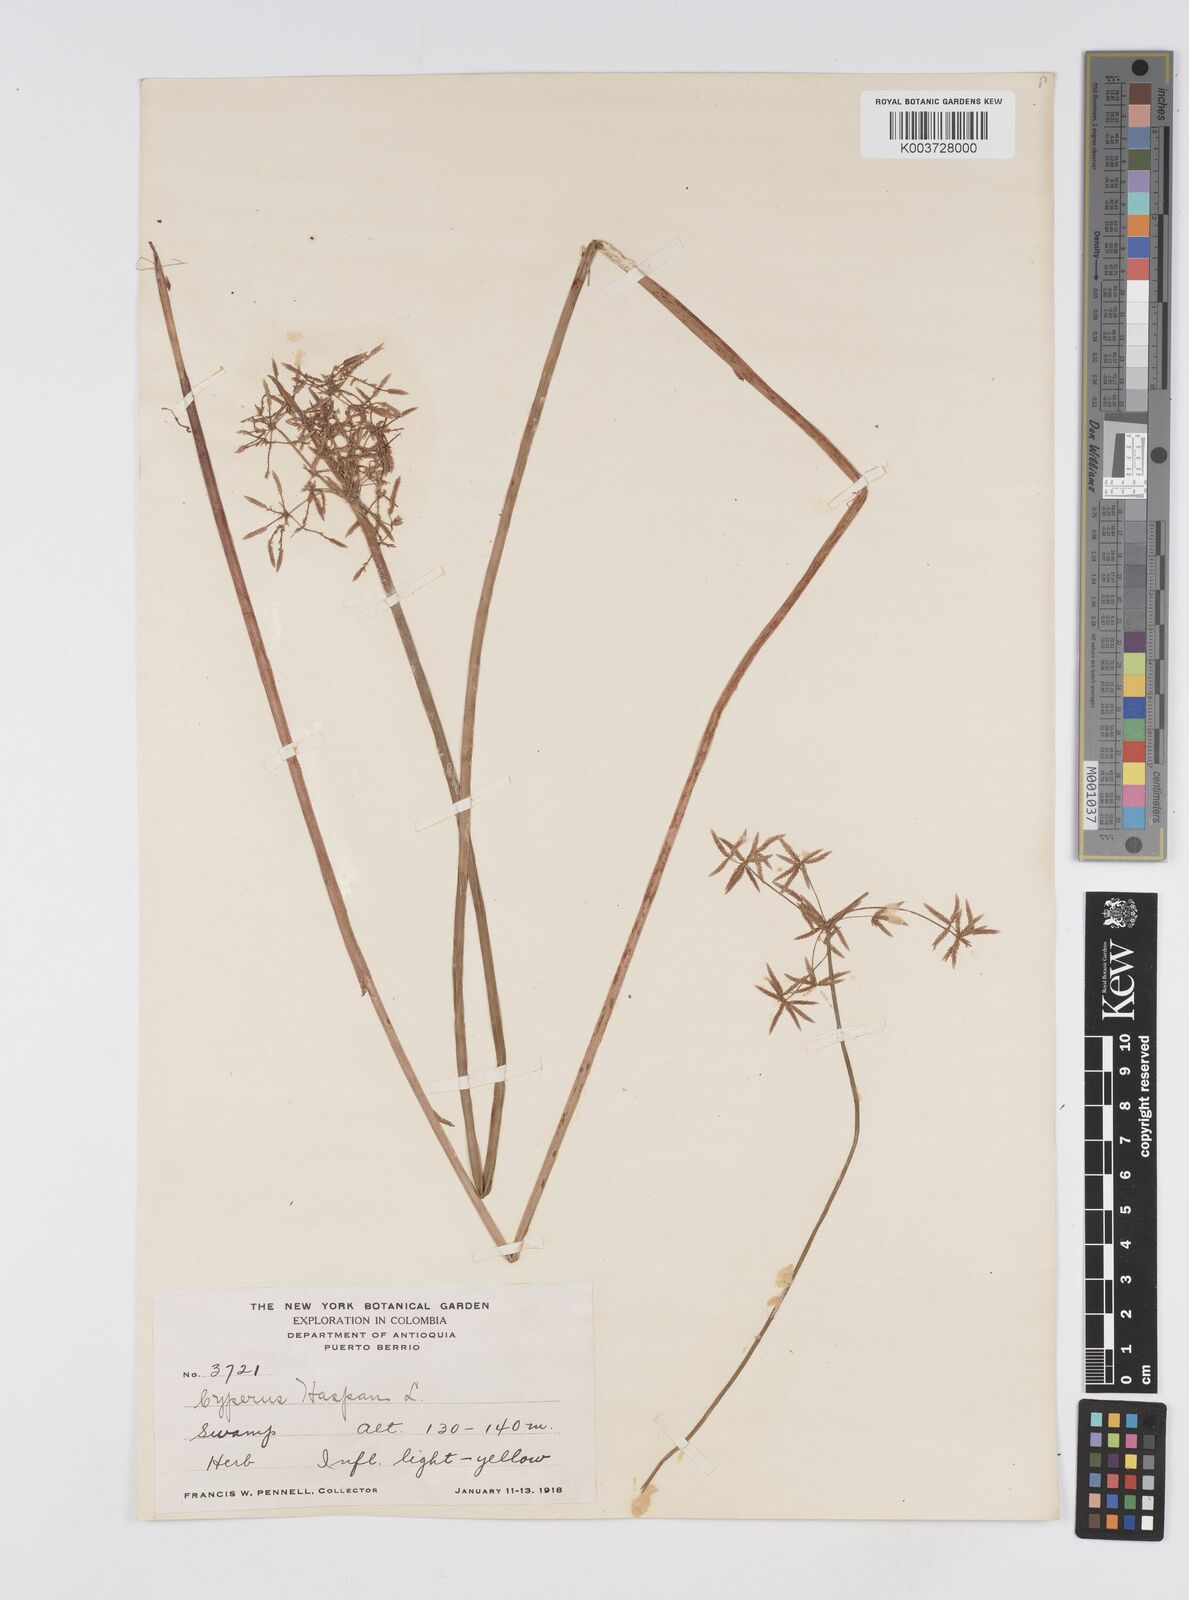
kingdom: Plantae
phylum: Tracheophyta
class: Liliopsida
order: Poales
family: Cyperaceae
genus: Cyperus
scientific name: Cyperus haspan
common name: Haspan flatsedge
